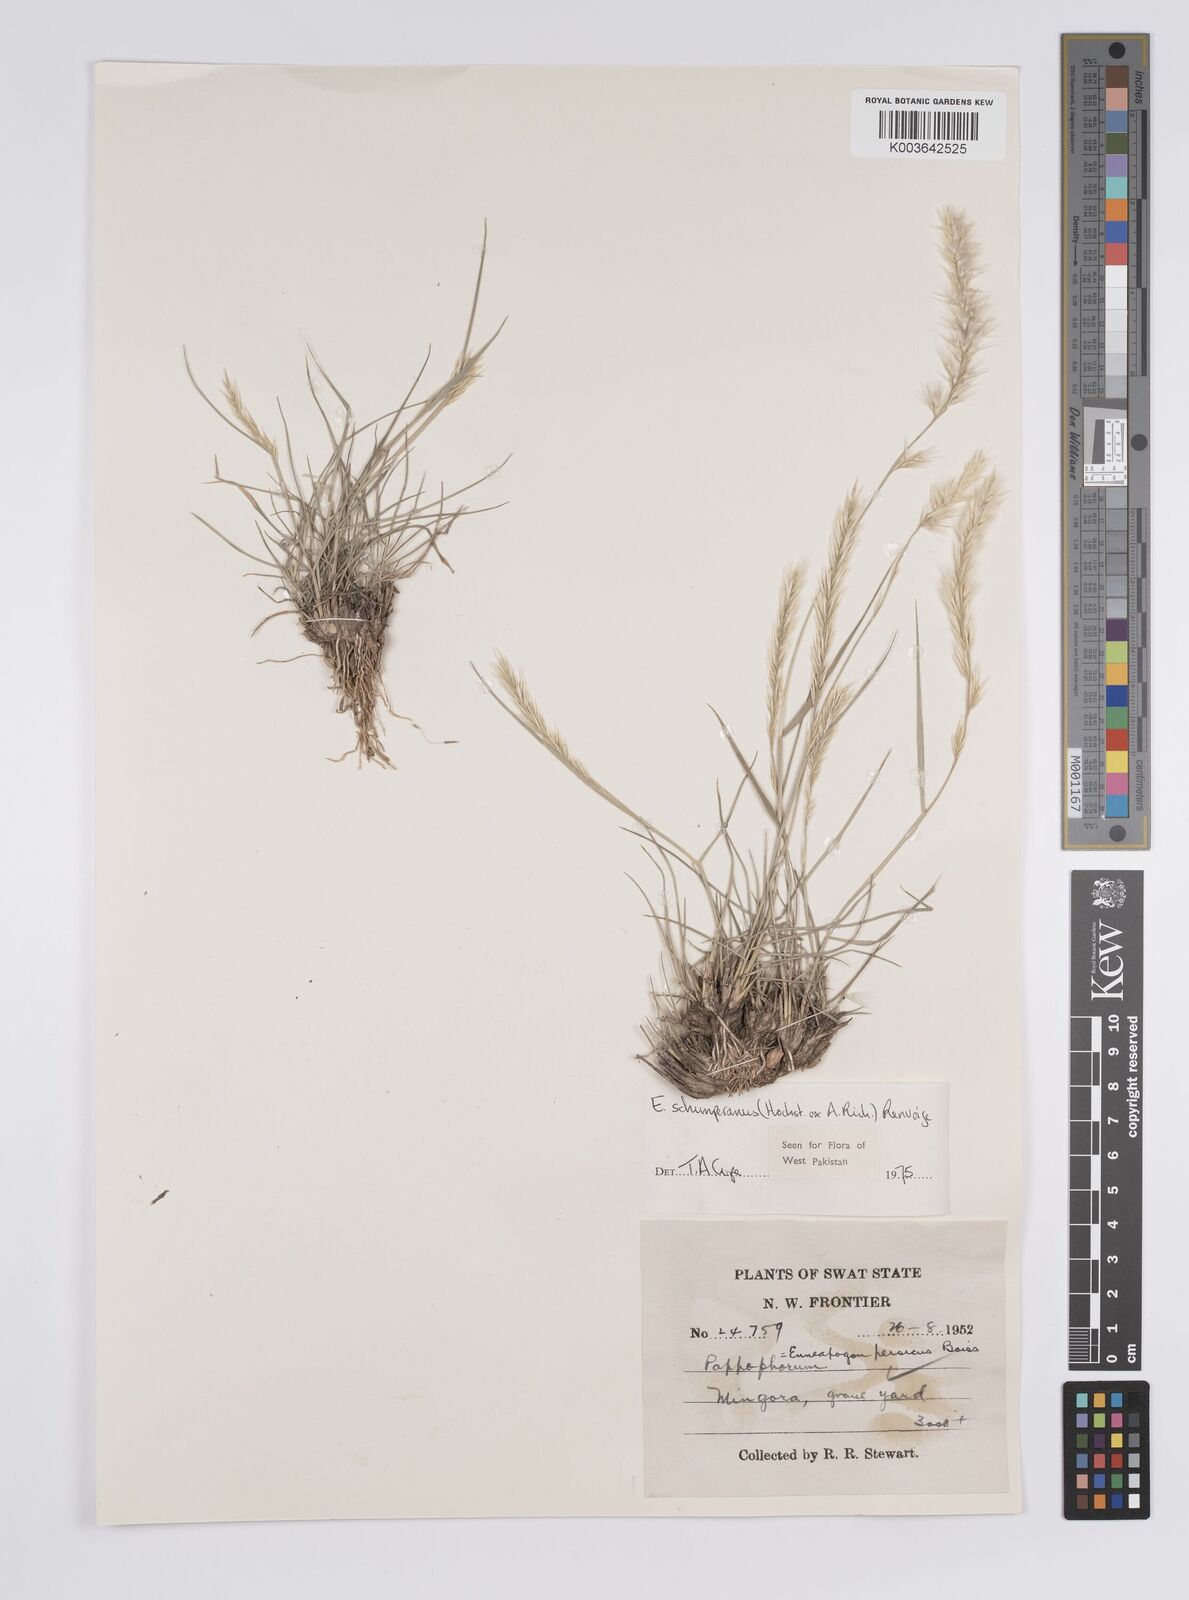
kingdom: Plantae
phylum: Tracheophyta
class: Liliopsida
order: Poales
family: Poaceae
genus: Enneapogon
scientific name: Enneapogon persicus
